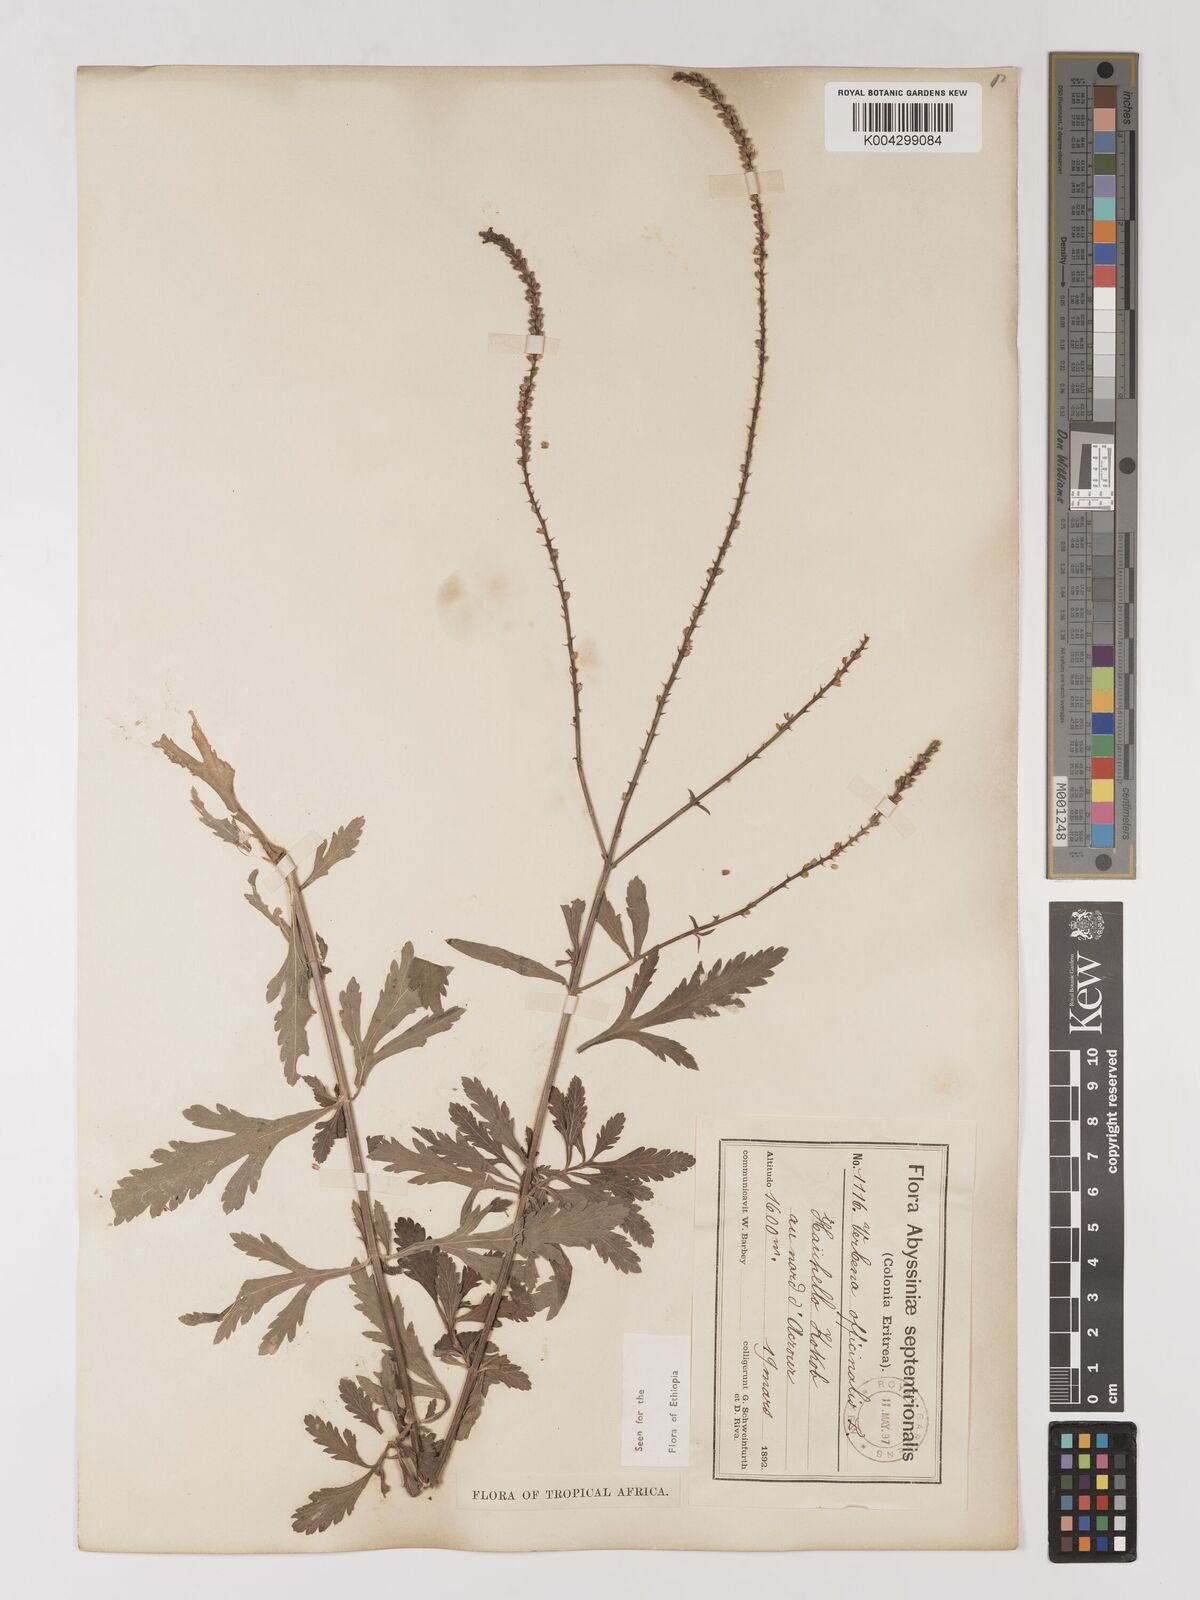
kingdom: Plantae
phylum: Tracheophyta
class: Magnoliopsida
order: Lamiales
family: Verbenaceae
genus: Verbena
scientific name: Verbena officinalis
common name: Vervain
